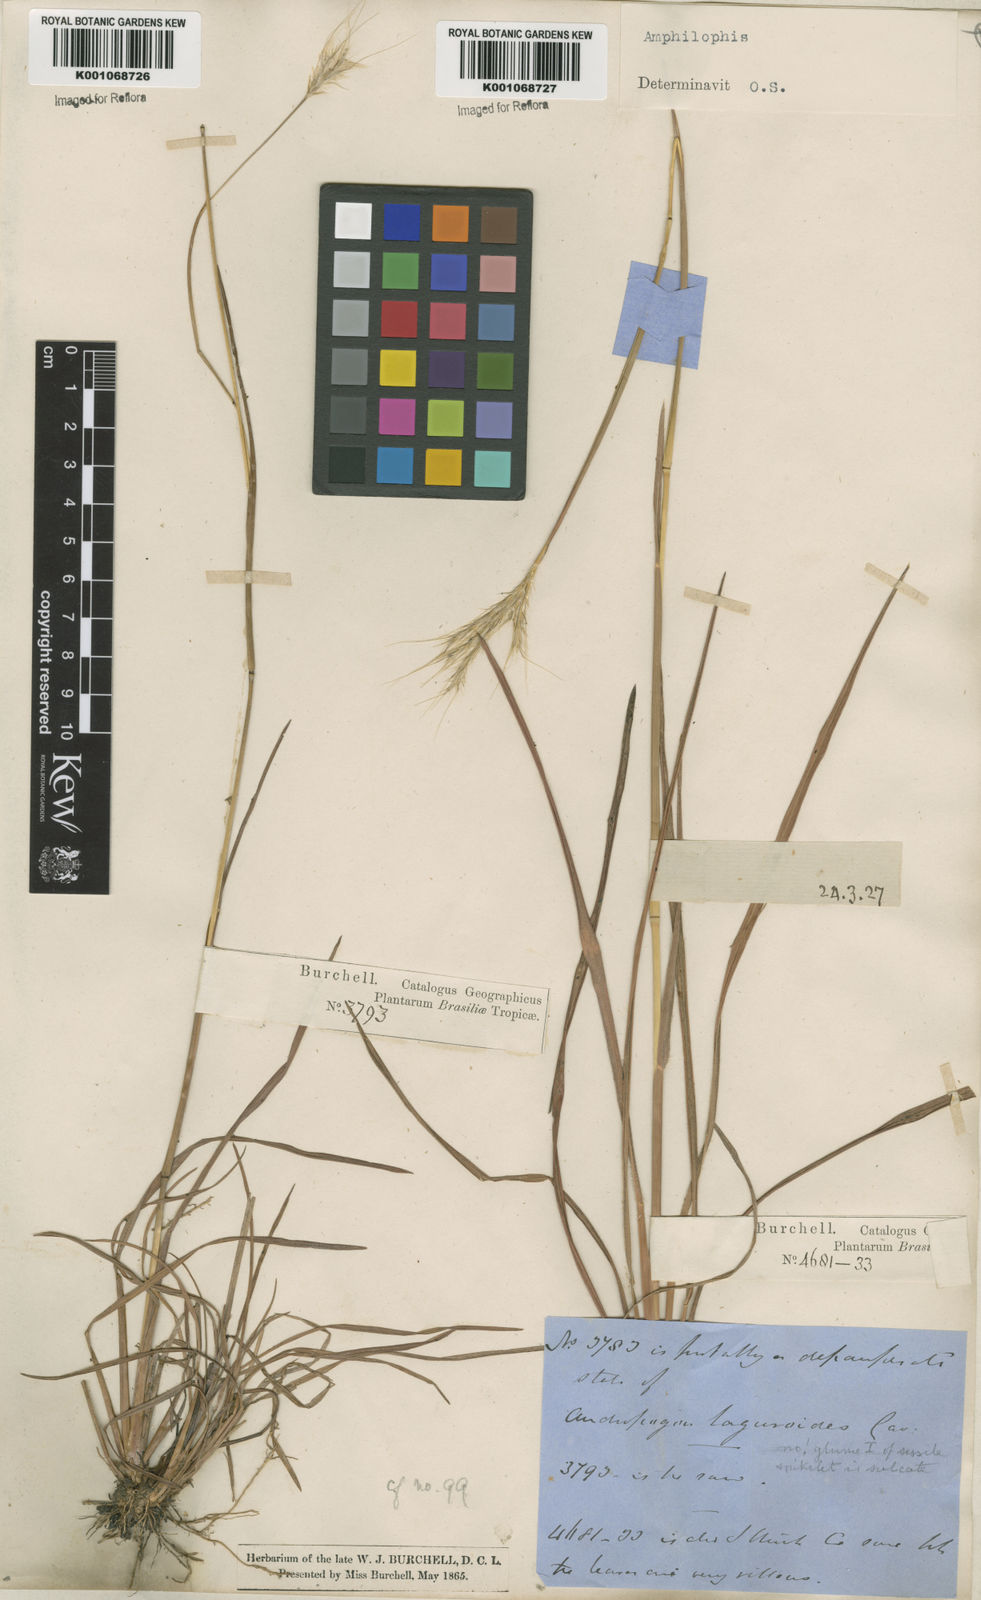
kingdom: Plantae
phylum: Tracheophyta
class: Liliopsida
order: Poales
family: Poaceae
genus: Bothriochloa
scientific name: Bothriochloa
